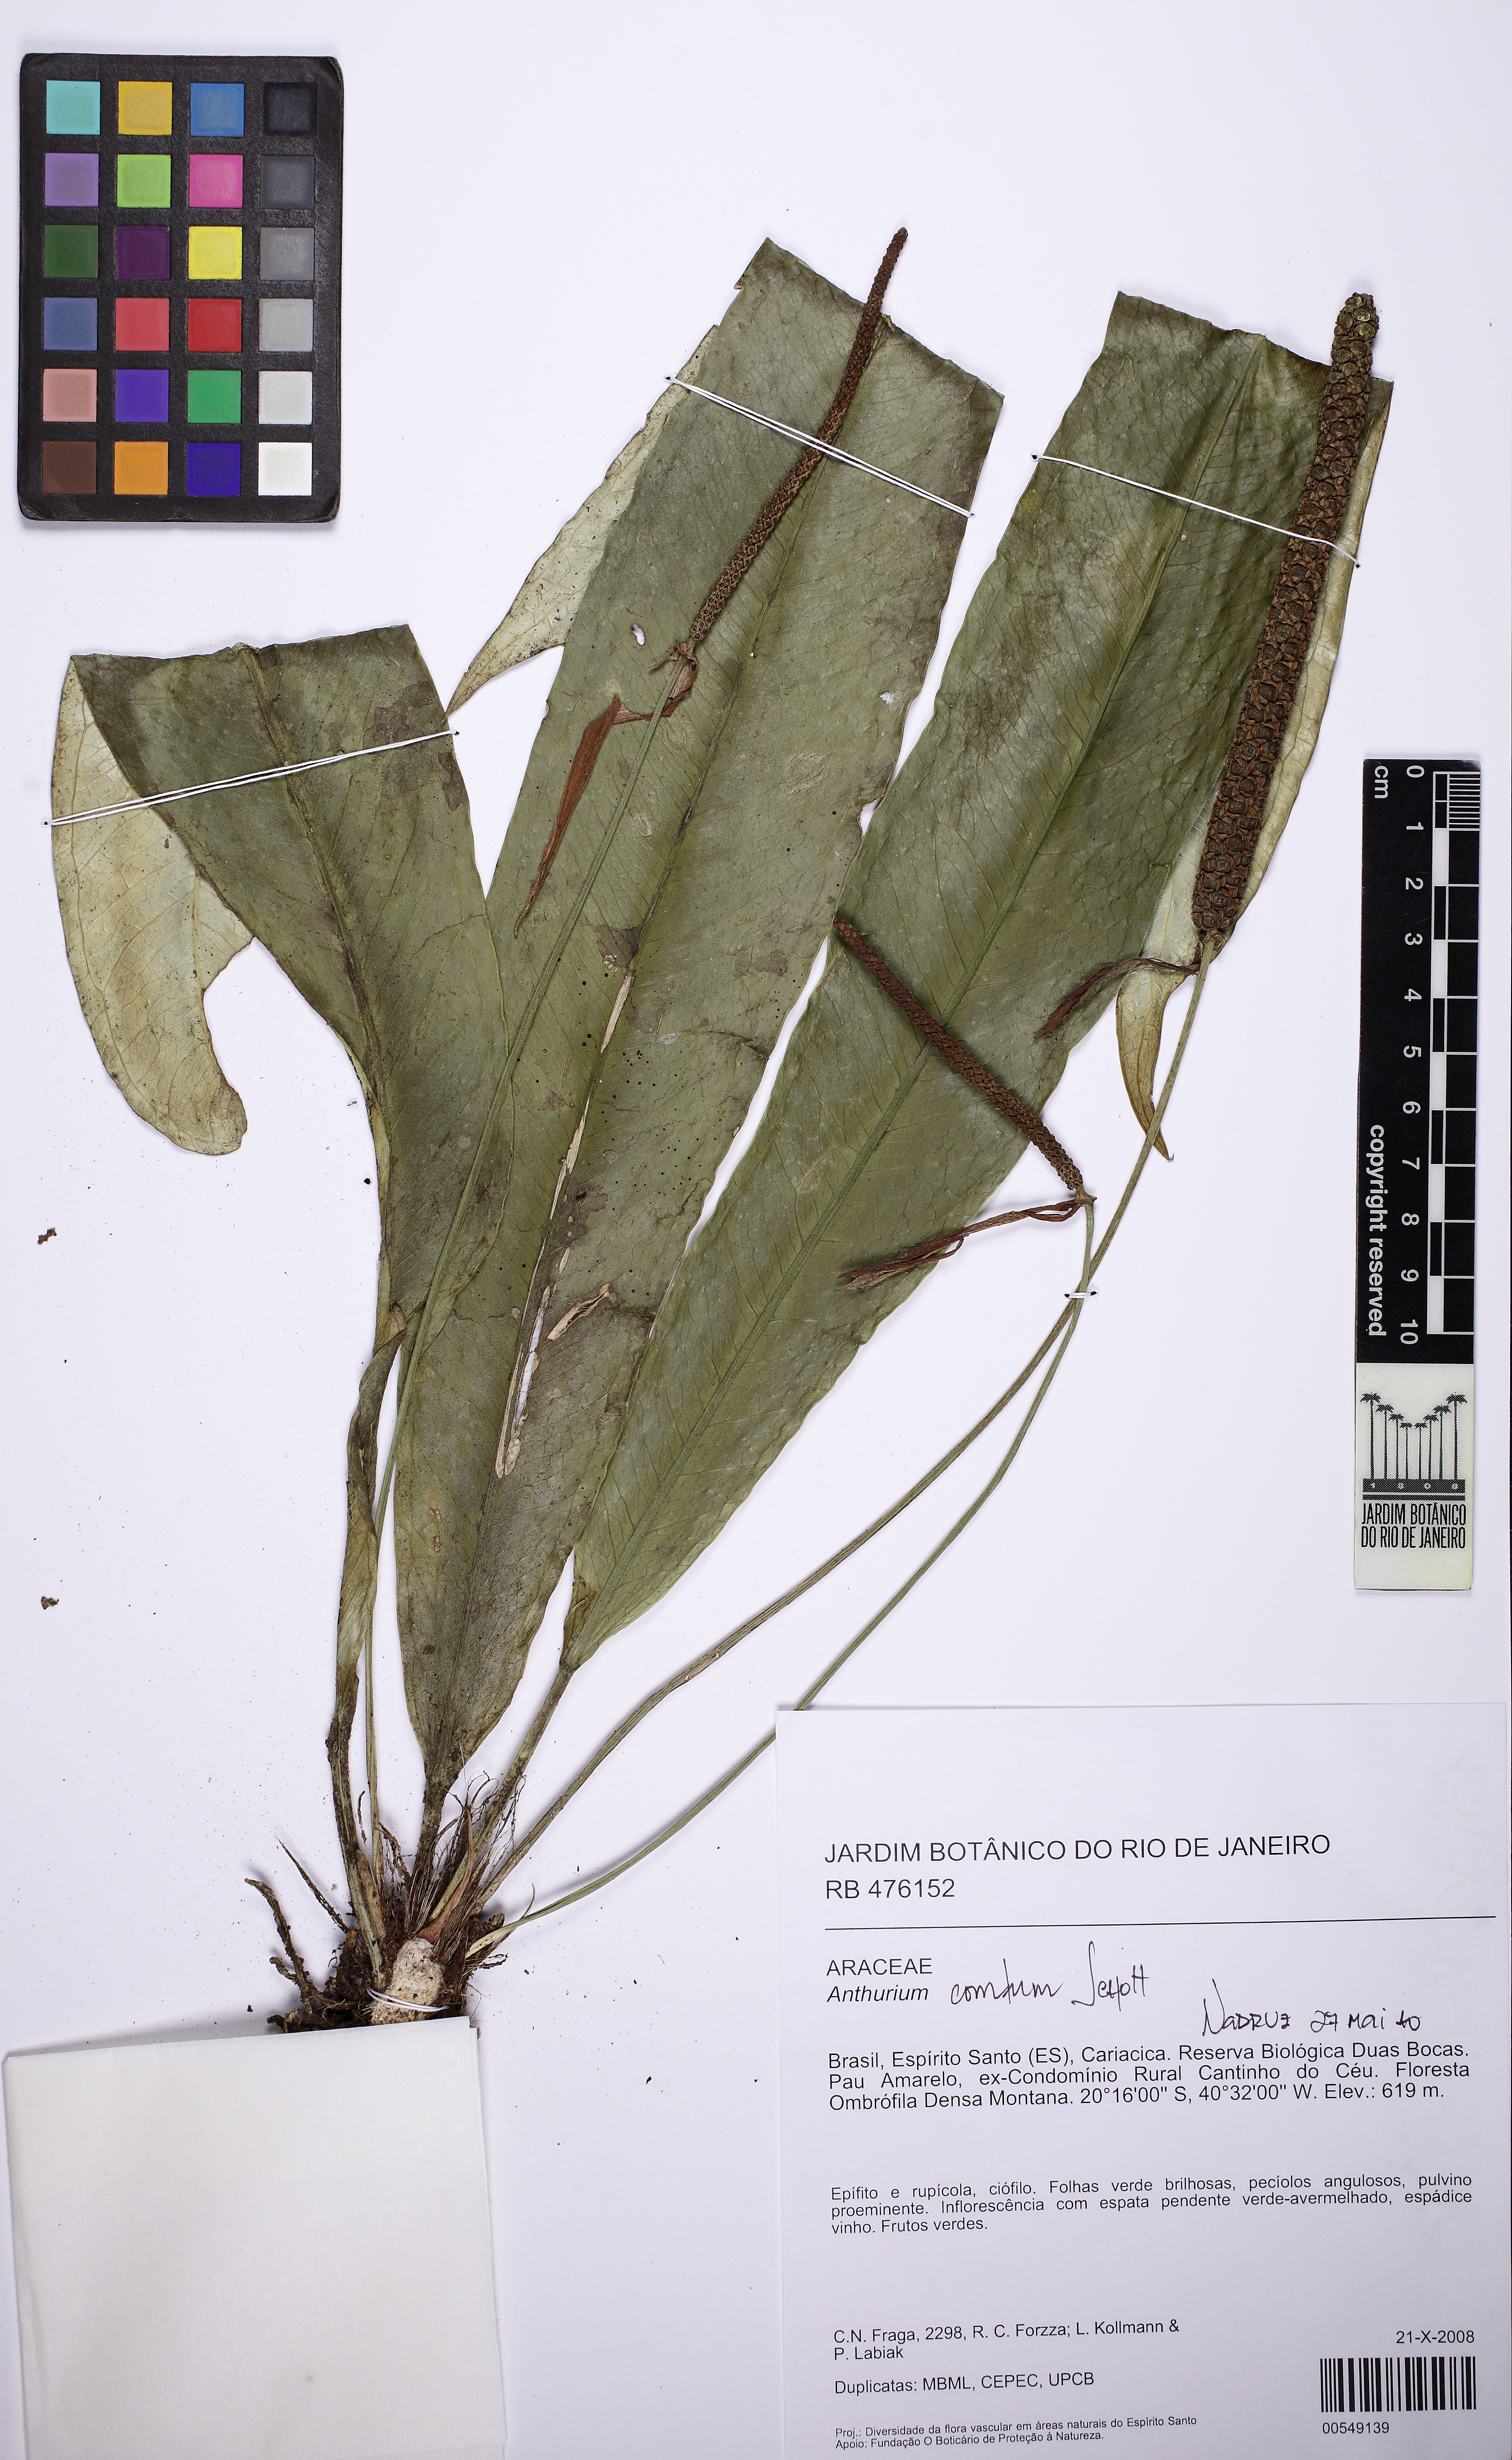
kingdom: Plantae
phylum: Tracheophyta
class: Liliopsida
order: Alismatales
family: Araceae
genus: Anthurium
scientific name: Anthurium comtum
